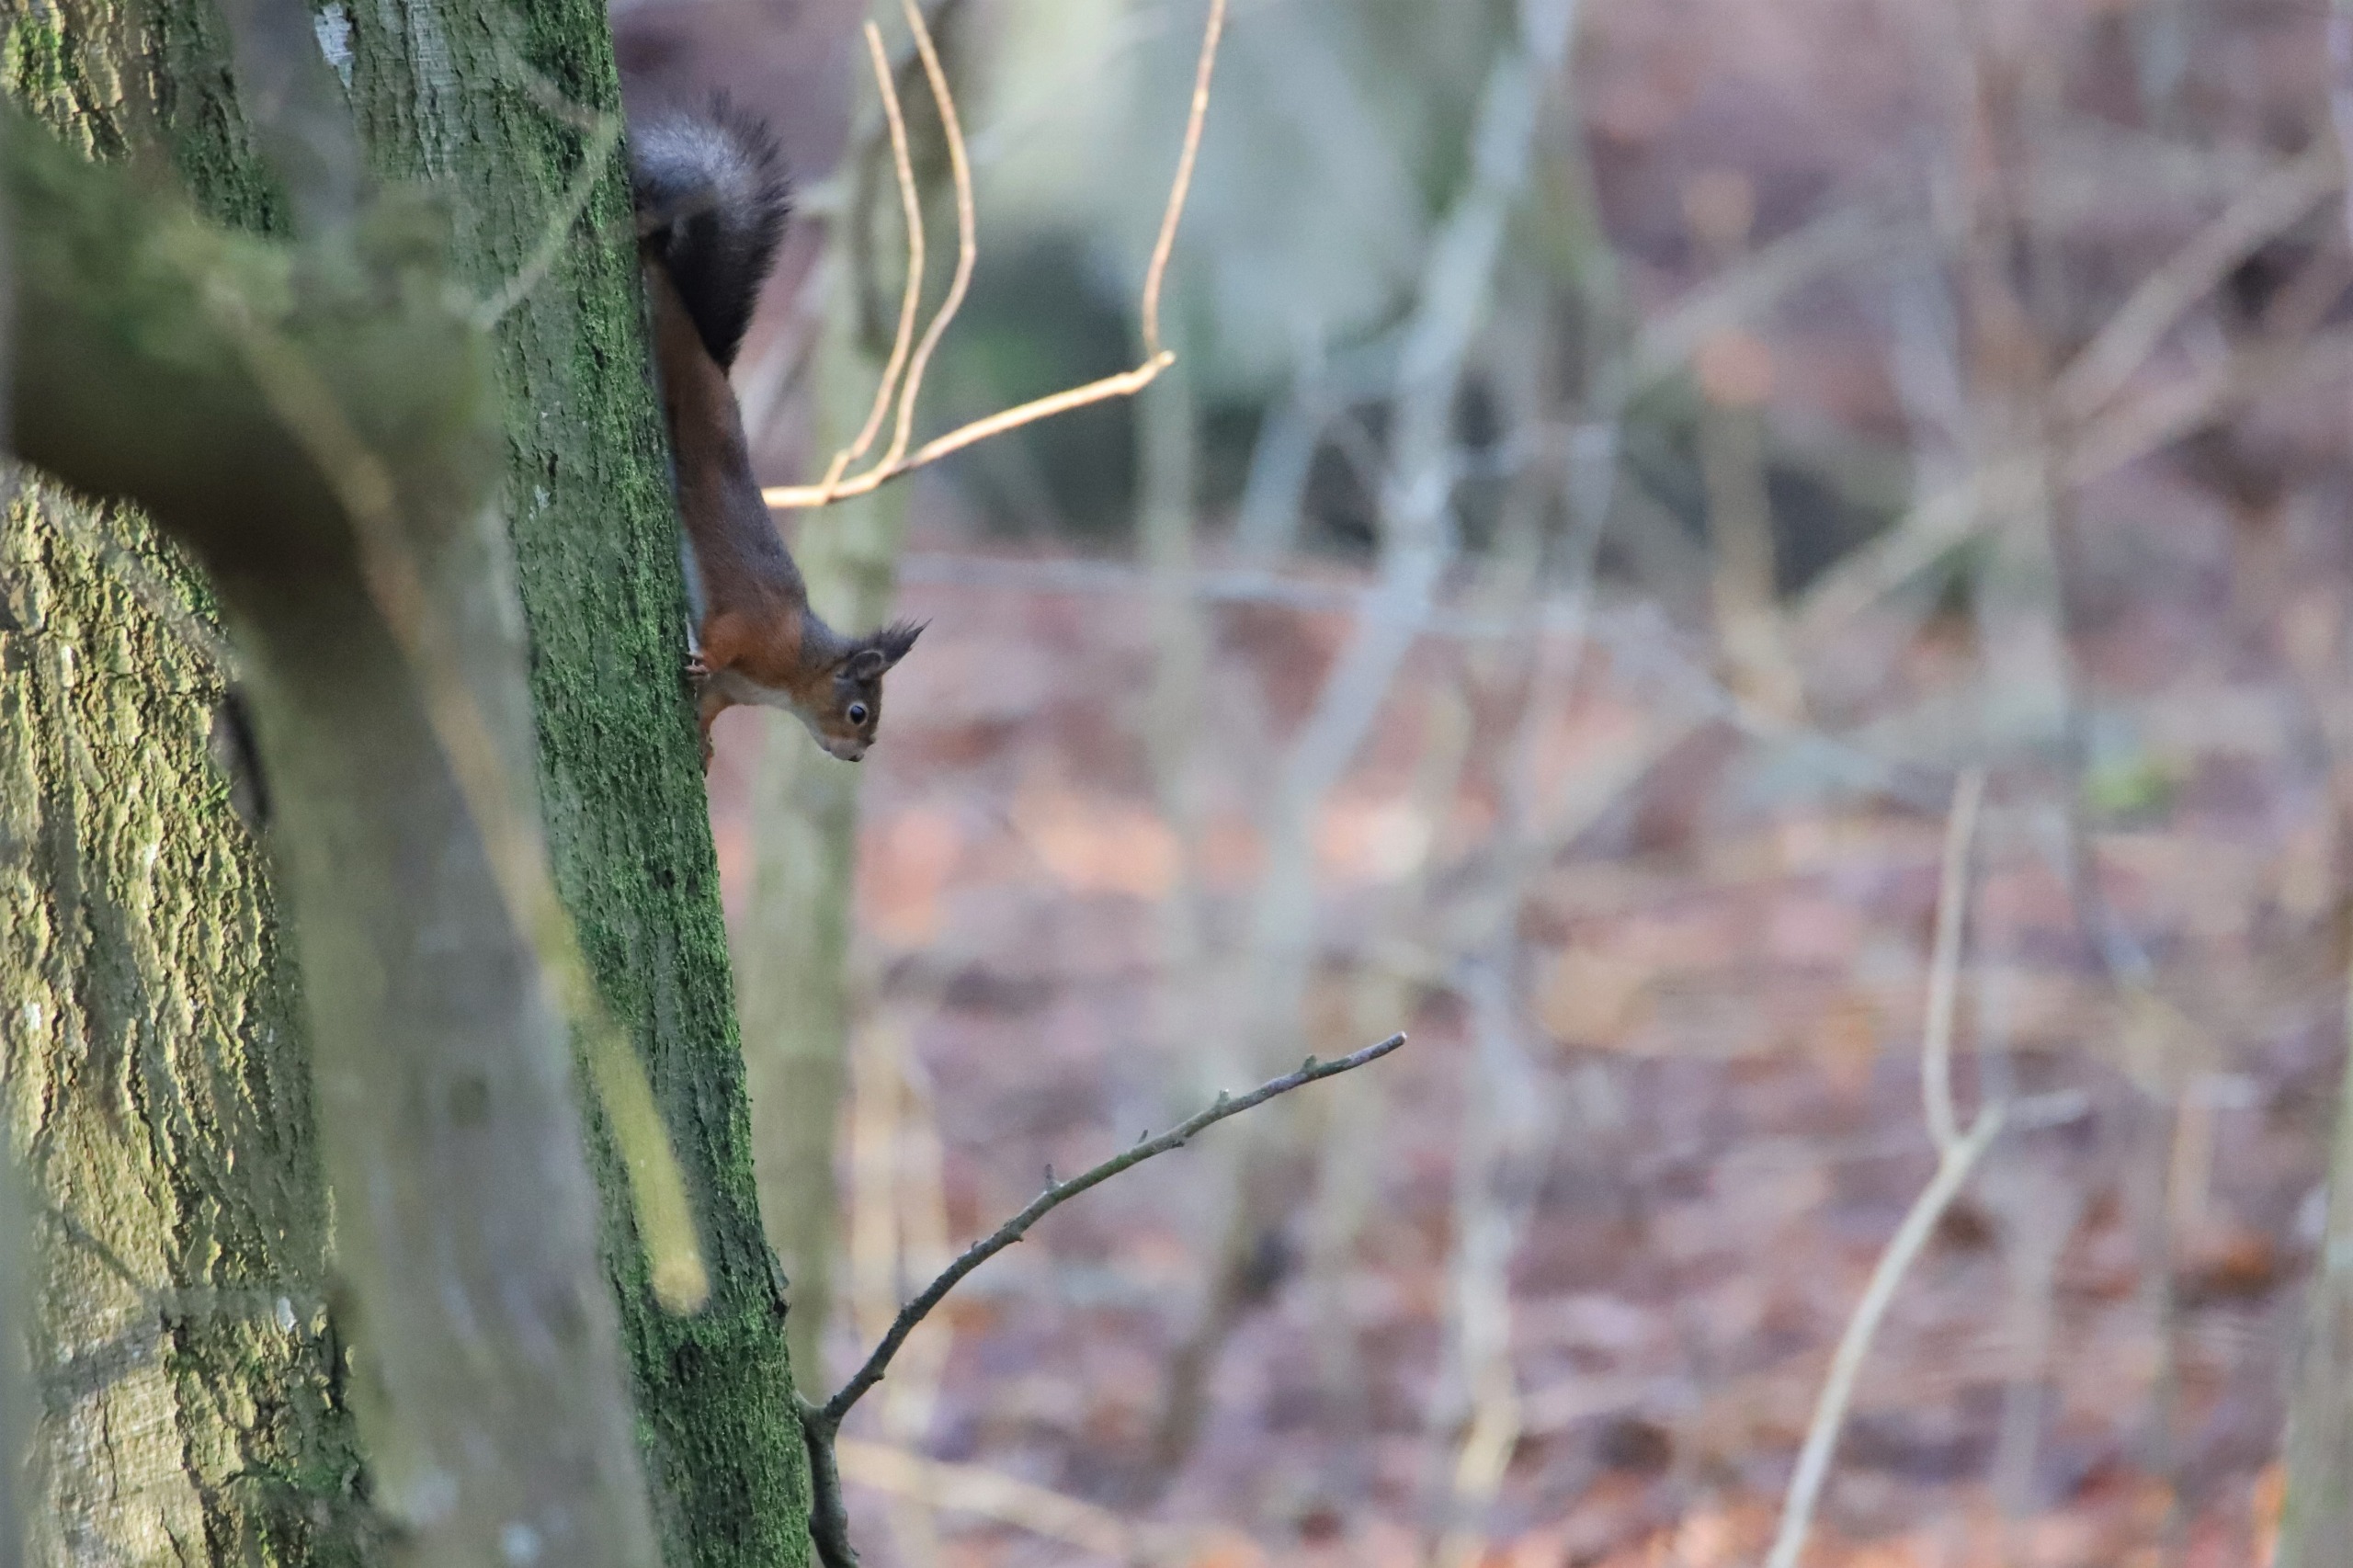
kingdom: Animalia
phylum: Chordata
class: Mammalia
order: Rodentia
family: Sciuridae
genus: Sciurus
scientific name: Sciurus vulgaris
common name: Egern
